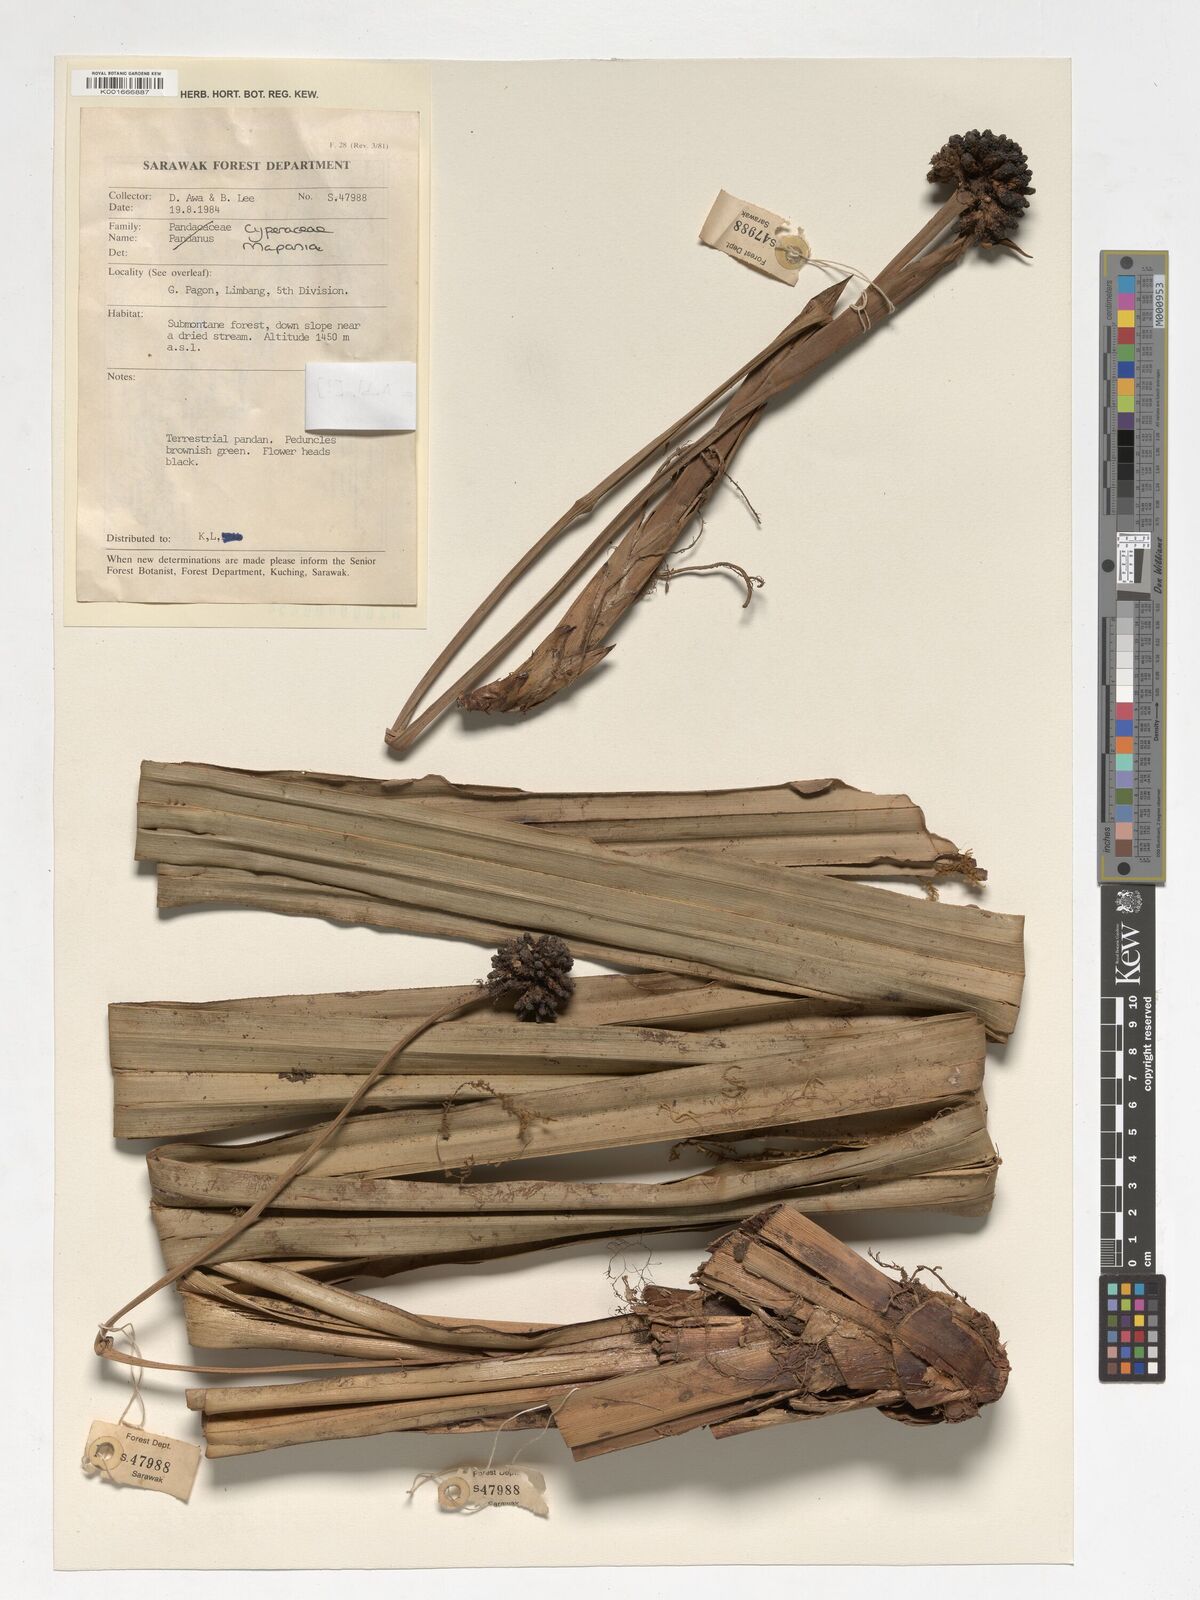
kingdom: Plantae
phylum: Tracheophyta
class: Liliopsida
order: Poales
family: Cyperaceae
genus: Mapania
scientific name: Mapania
